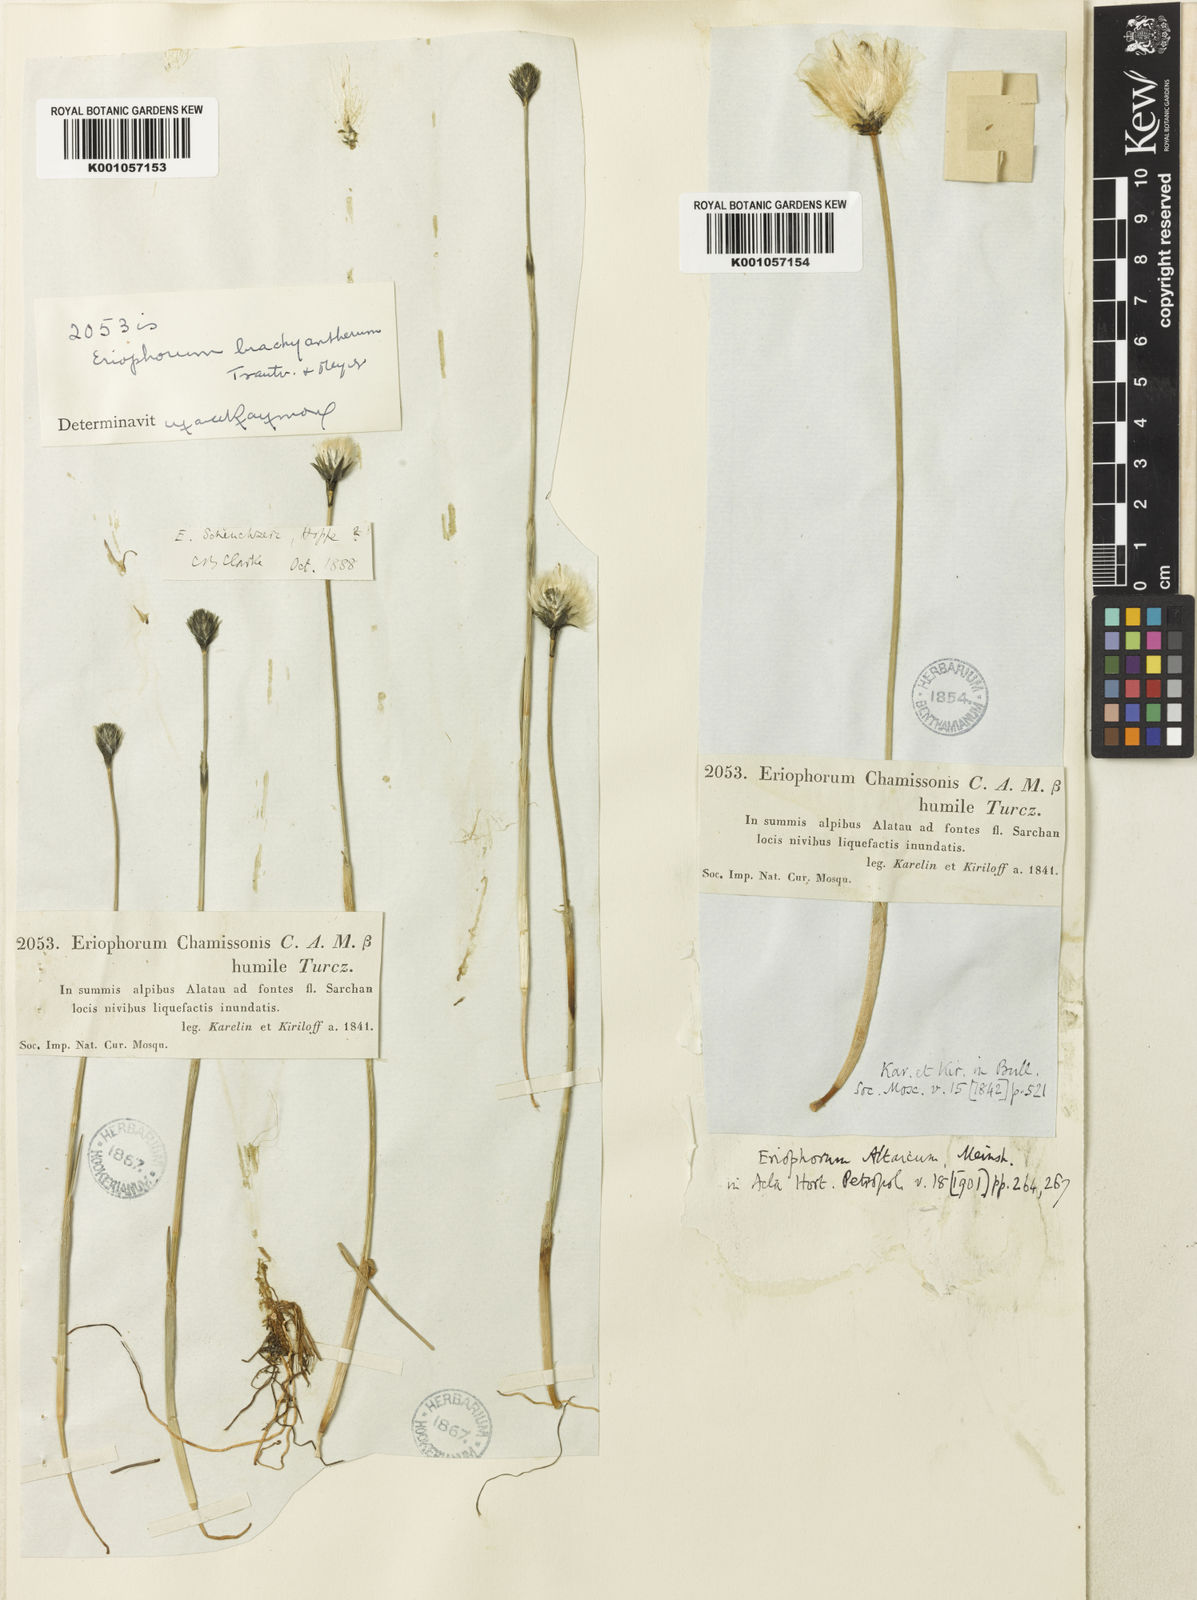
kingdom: Plantae
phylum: Tracheophyta
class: Liliopsida
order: Poales
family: Cyperaceae
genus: Eriophorum
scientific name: Eriophorum chamissonis
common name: Chamisso's cottongrass
